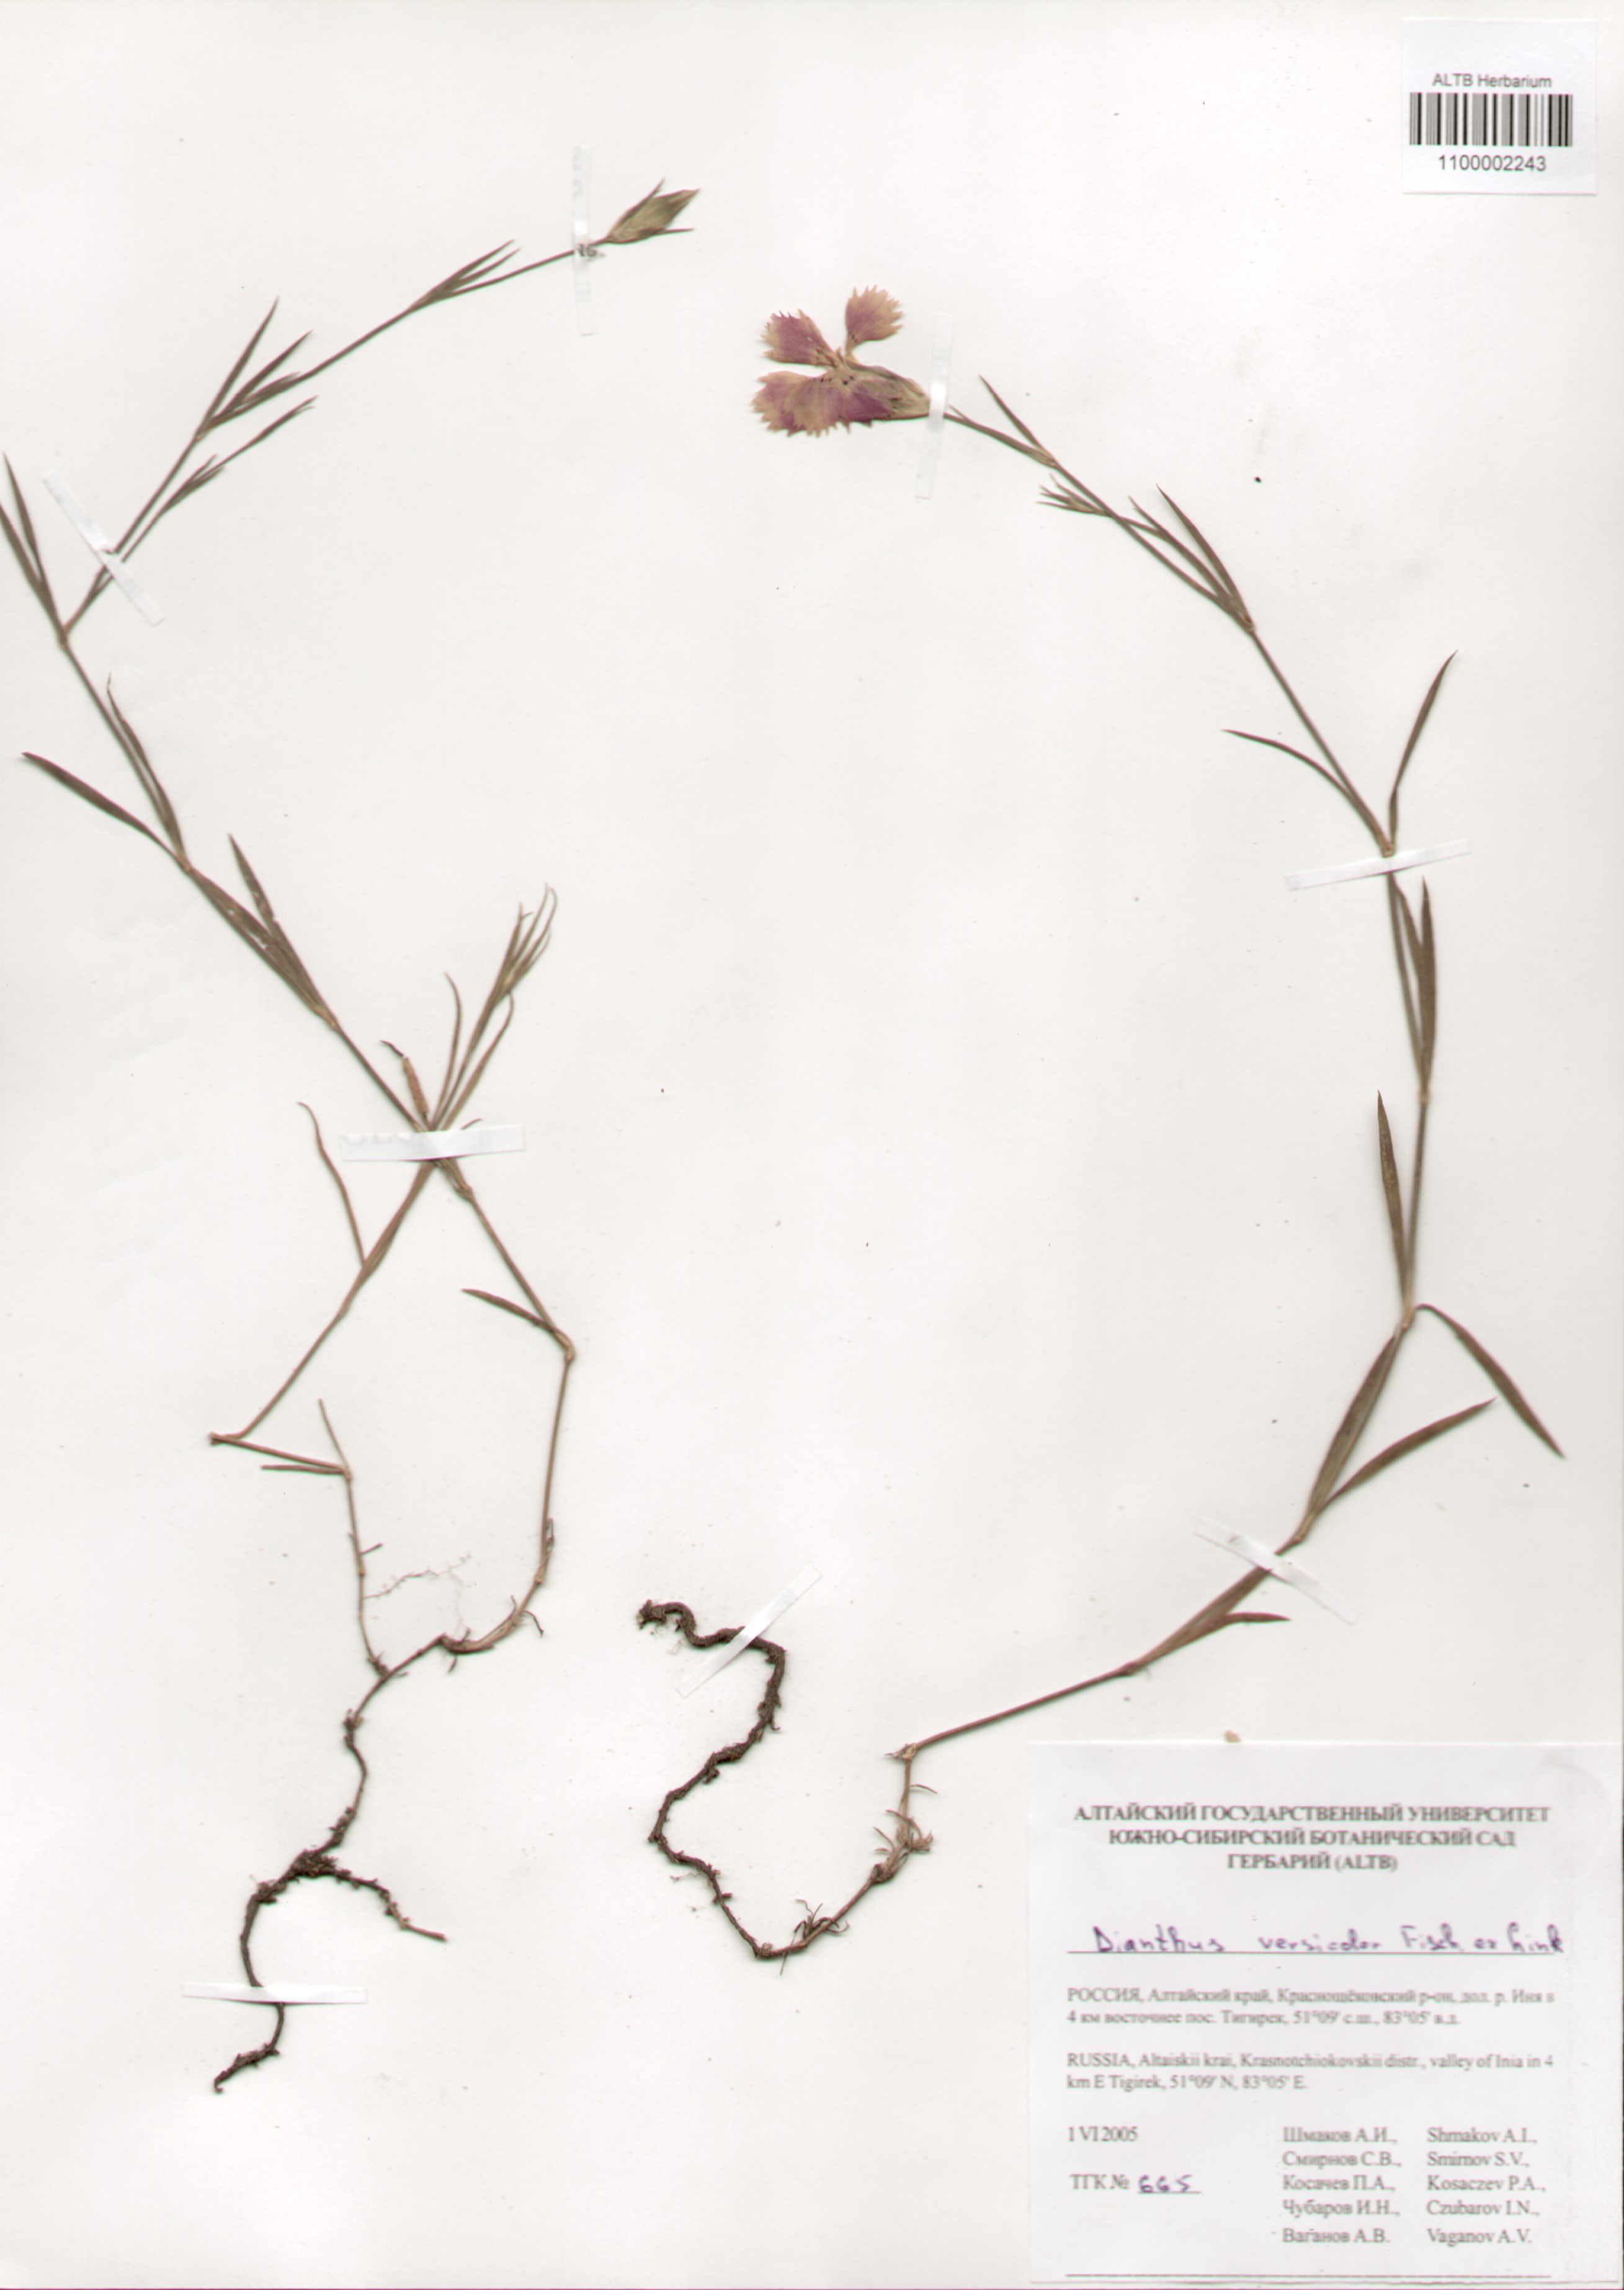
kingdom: Plantae
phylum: Tracheophyta
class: Magnoliopsida
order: Caryophyllales
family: Caryophyllaceae
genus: Dianthus
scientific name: Dianthus chinensis
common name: Rainbow pink
